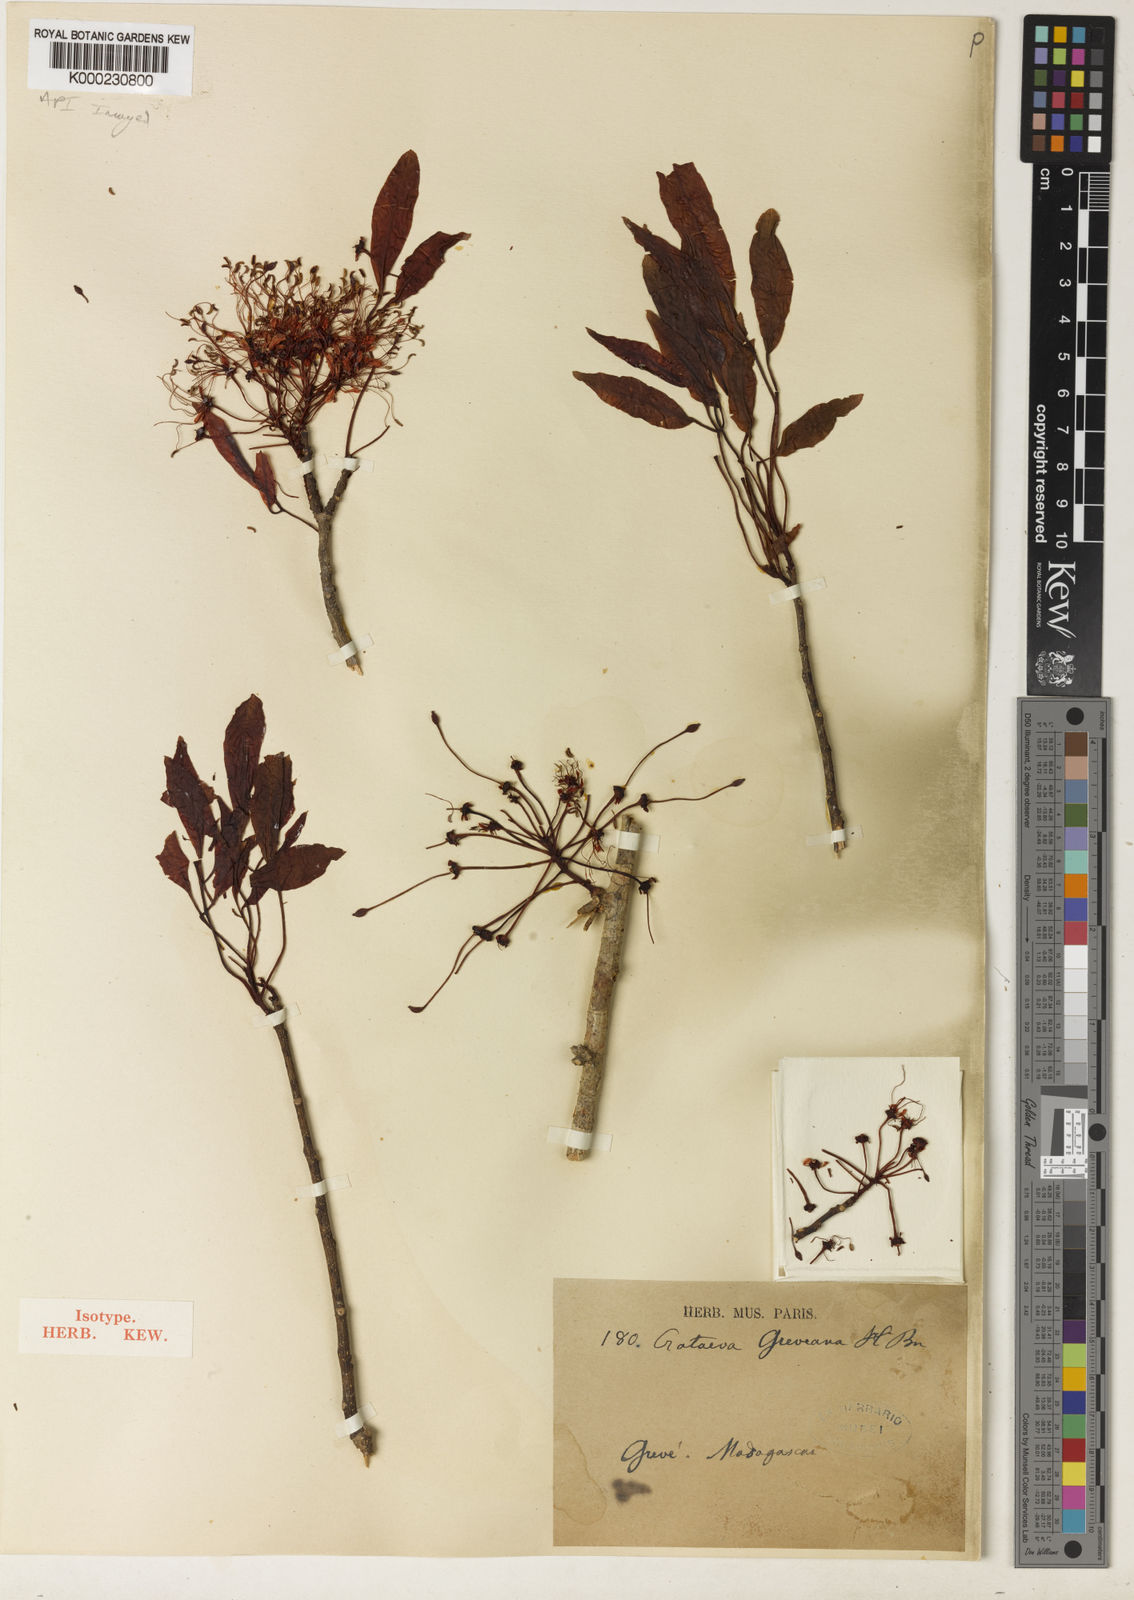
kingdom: Plantae
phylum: Tracheophyta
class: Magnoliopsida
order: Brassicales
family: Capparaceae
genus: Crateva
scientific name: Crateva greveana
